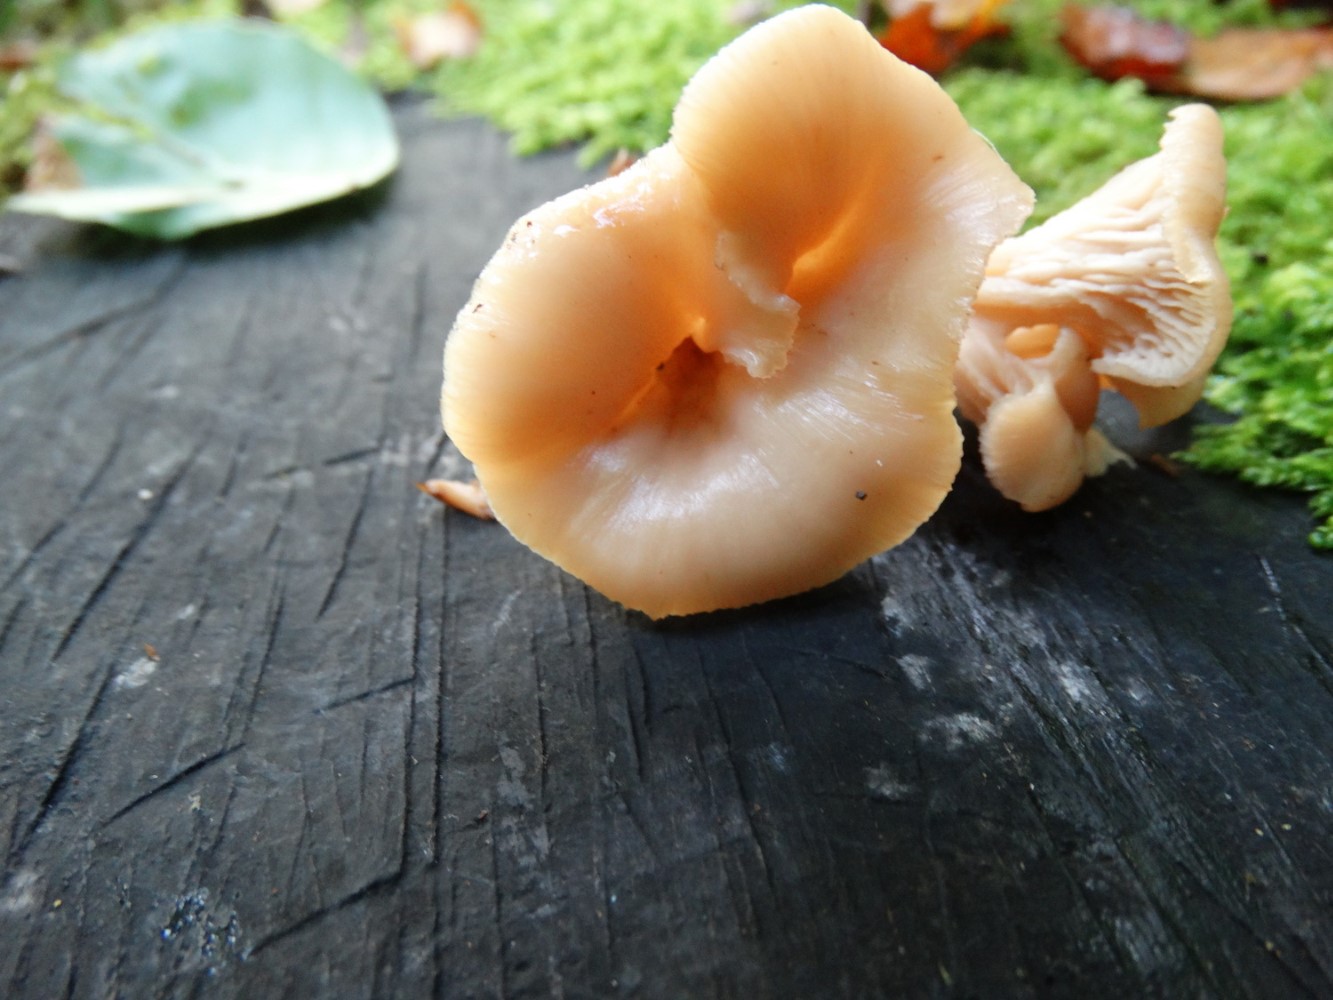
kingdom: Fungi
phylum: Basidiomycota
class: Agaricomycetes
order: Russulales
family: Auriscalpiaceae
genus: Lentinellus
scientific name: Lentinellus cochleatus
